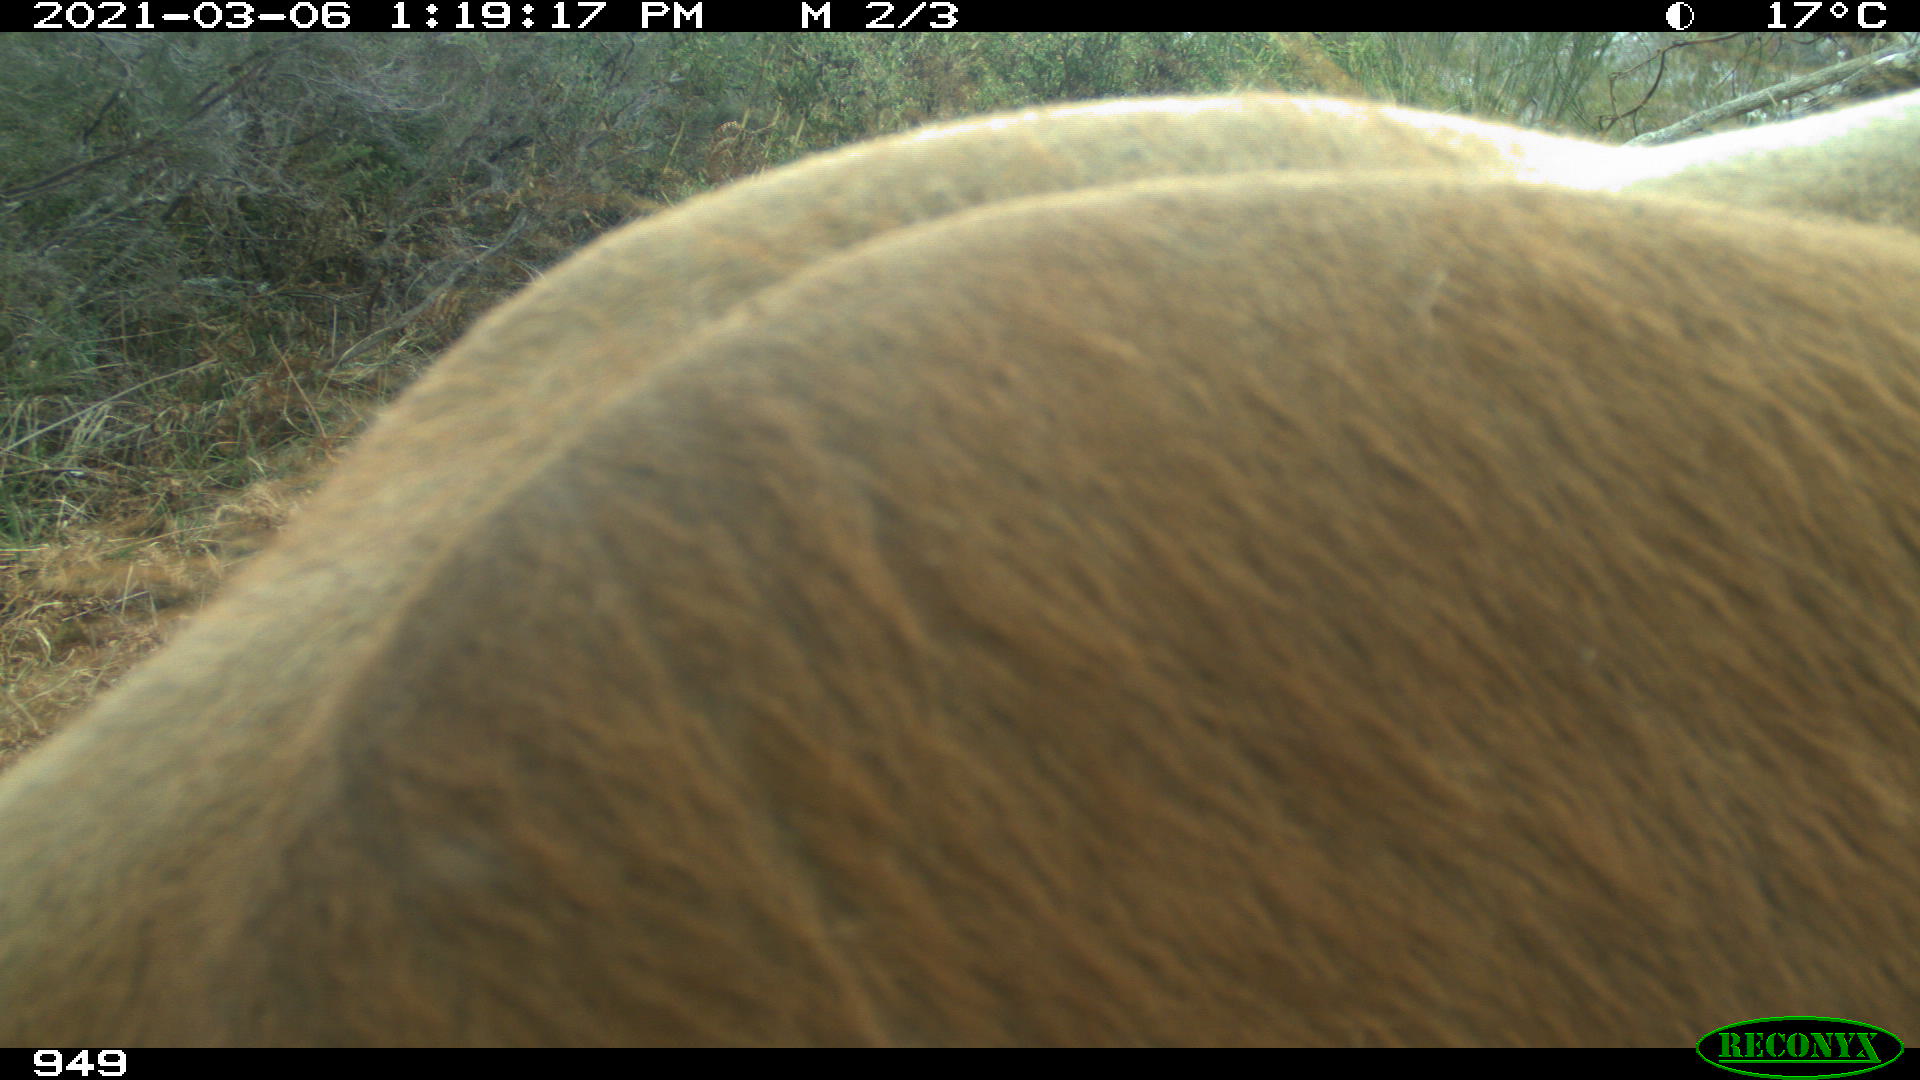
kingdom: Animalia
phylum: Chordata
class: Mammalia
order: Artiodactyla
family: Bovidae
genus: Bos
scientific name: Bos taurus
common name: Domesticated cattle
